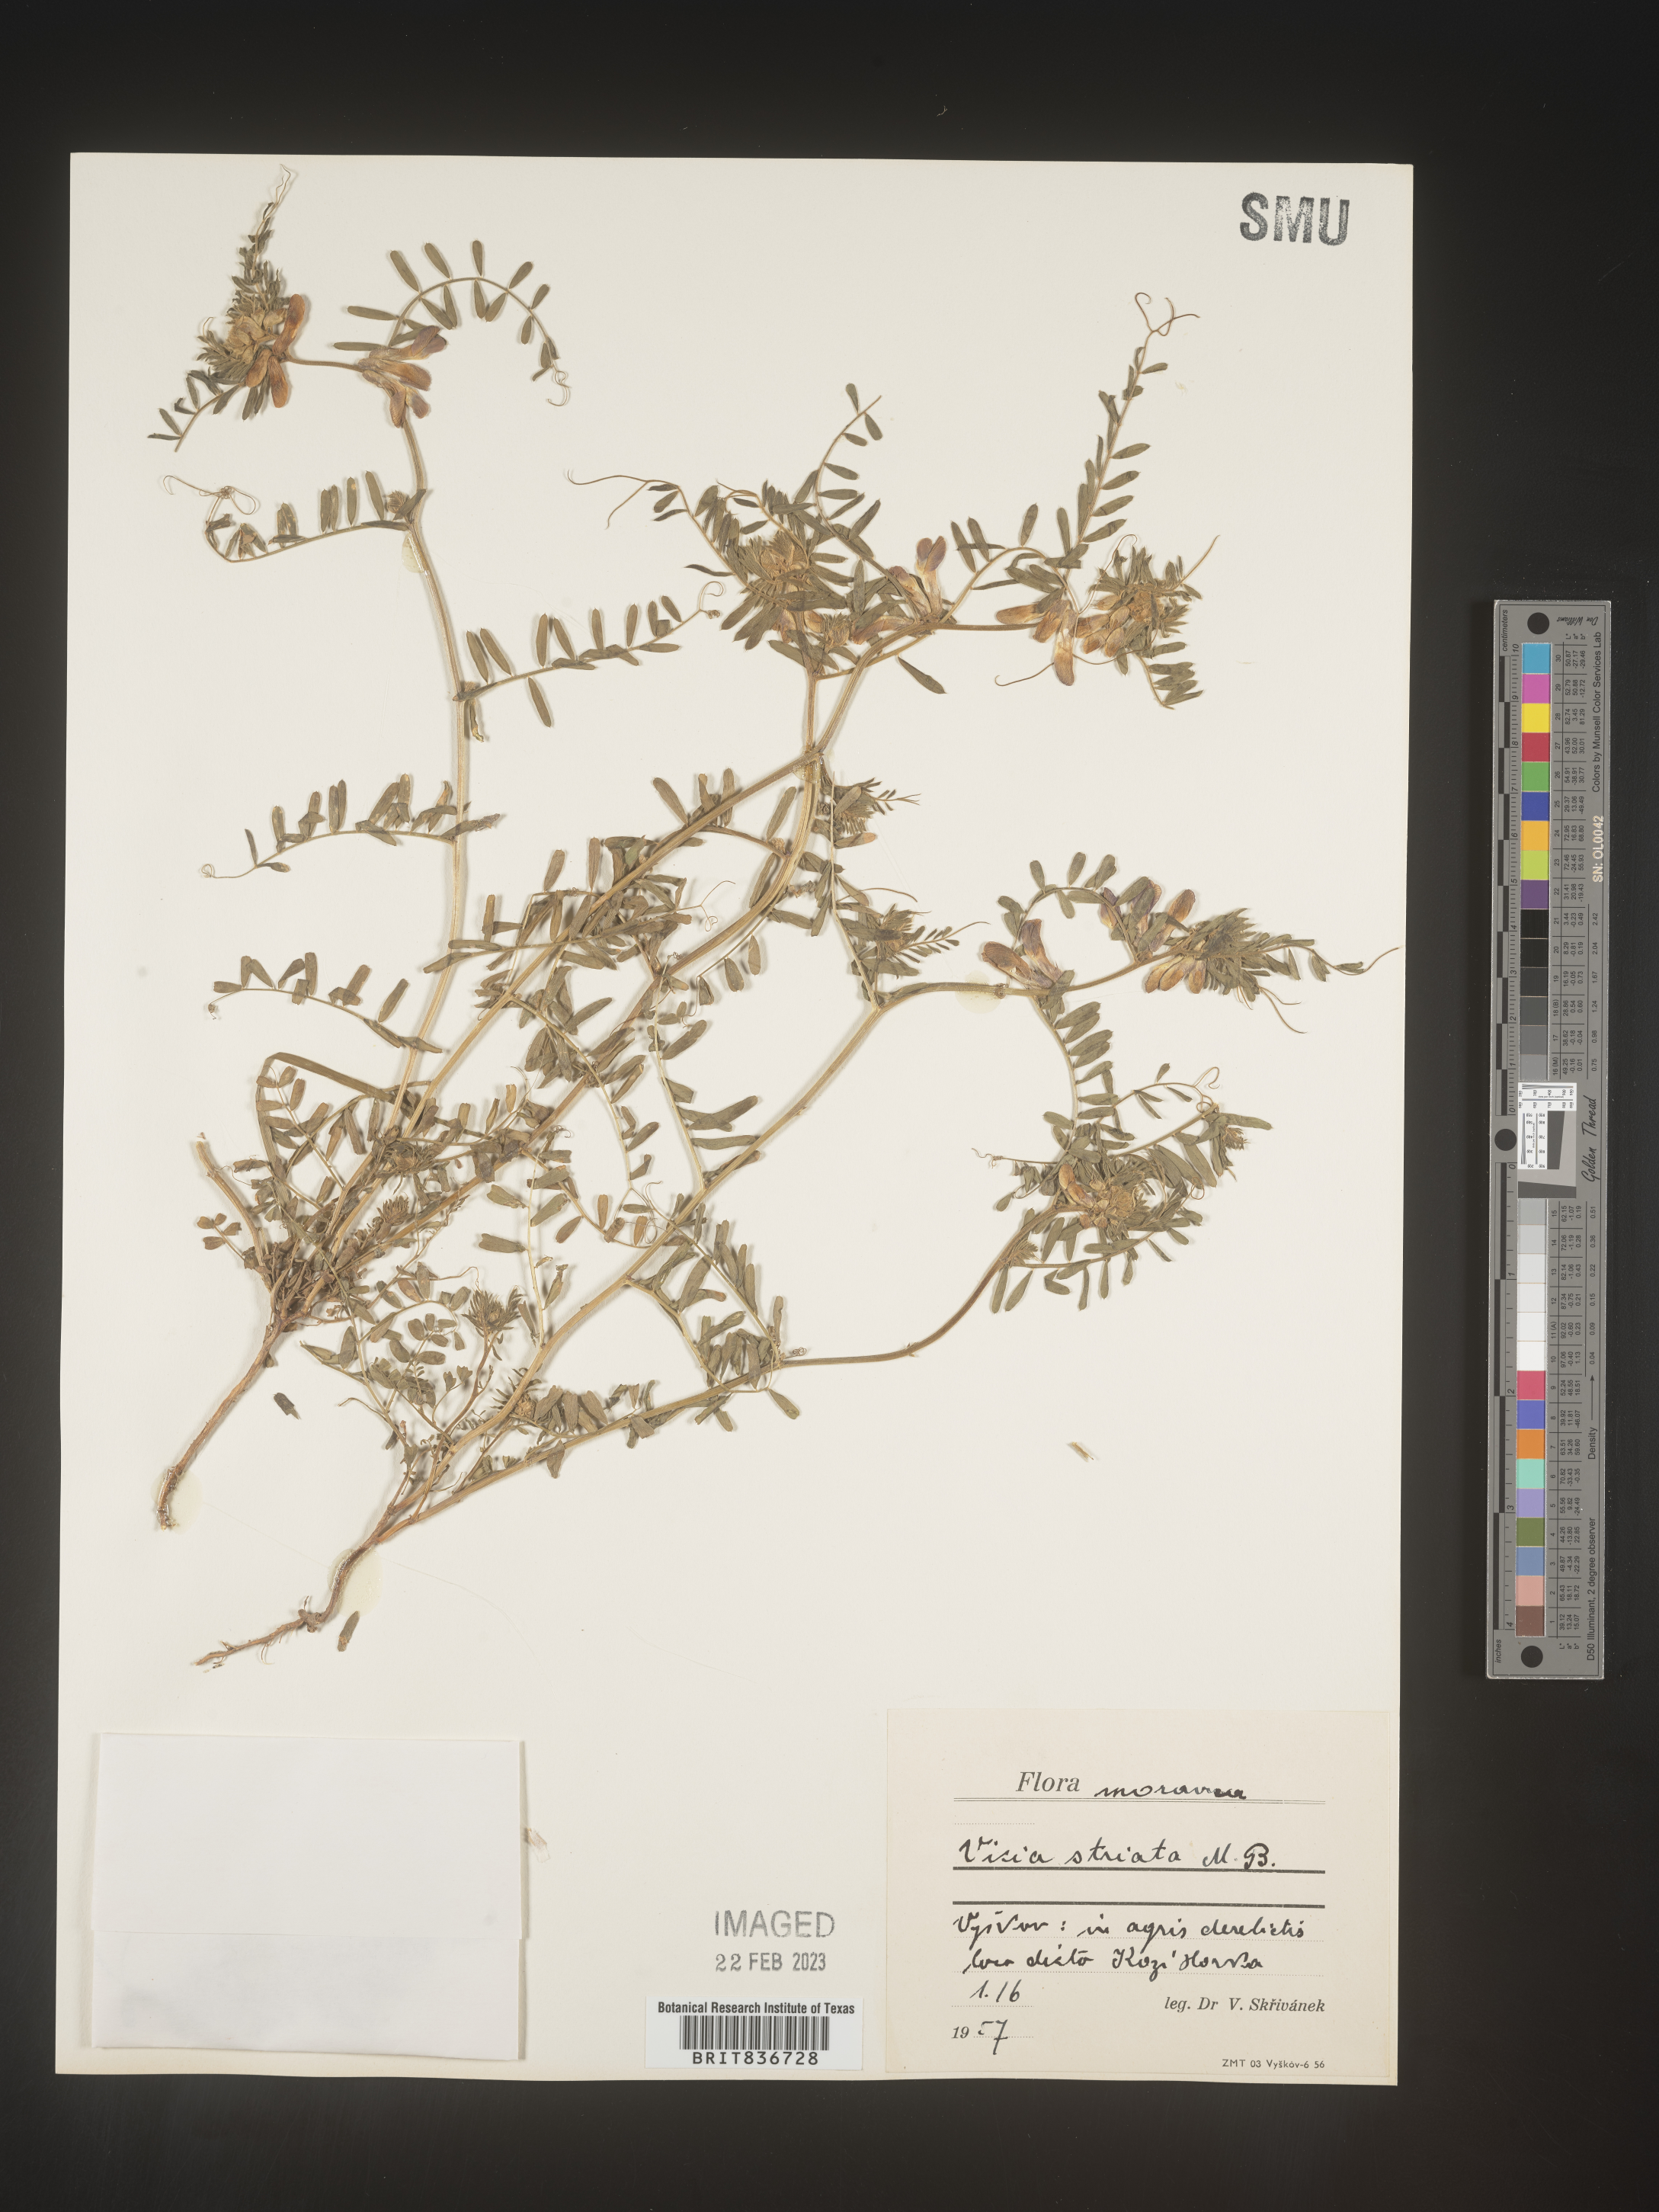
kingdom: Plantae
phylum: Tracheophyta
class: Magnoliopsida
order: Fabales
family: Fabaceae
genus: Vicia
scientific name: Vicia
